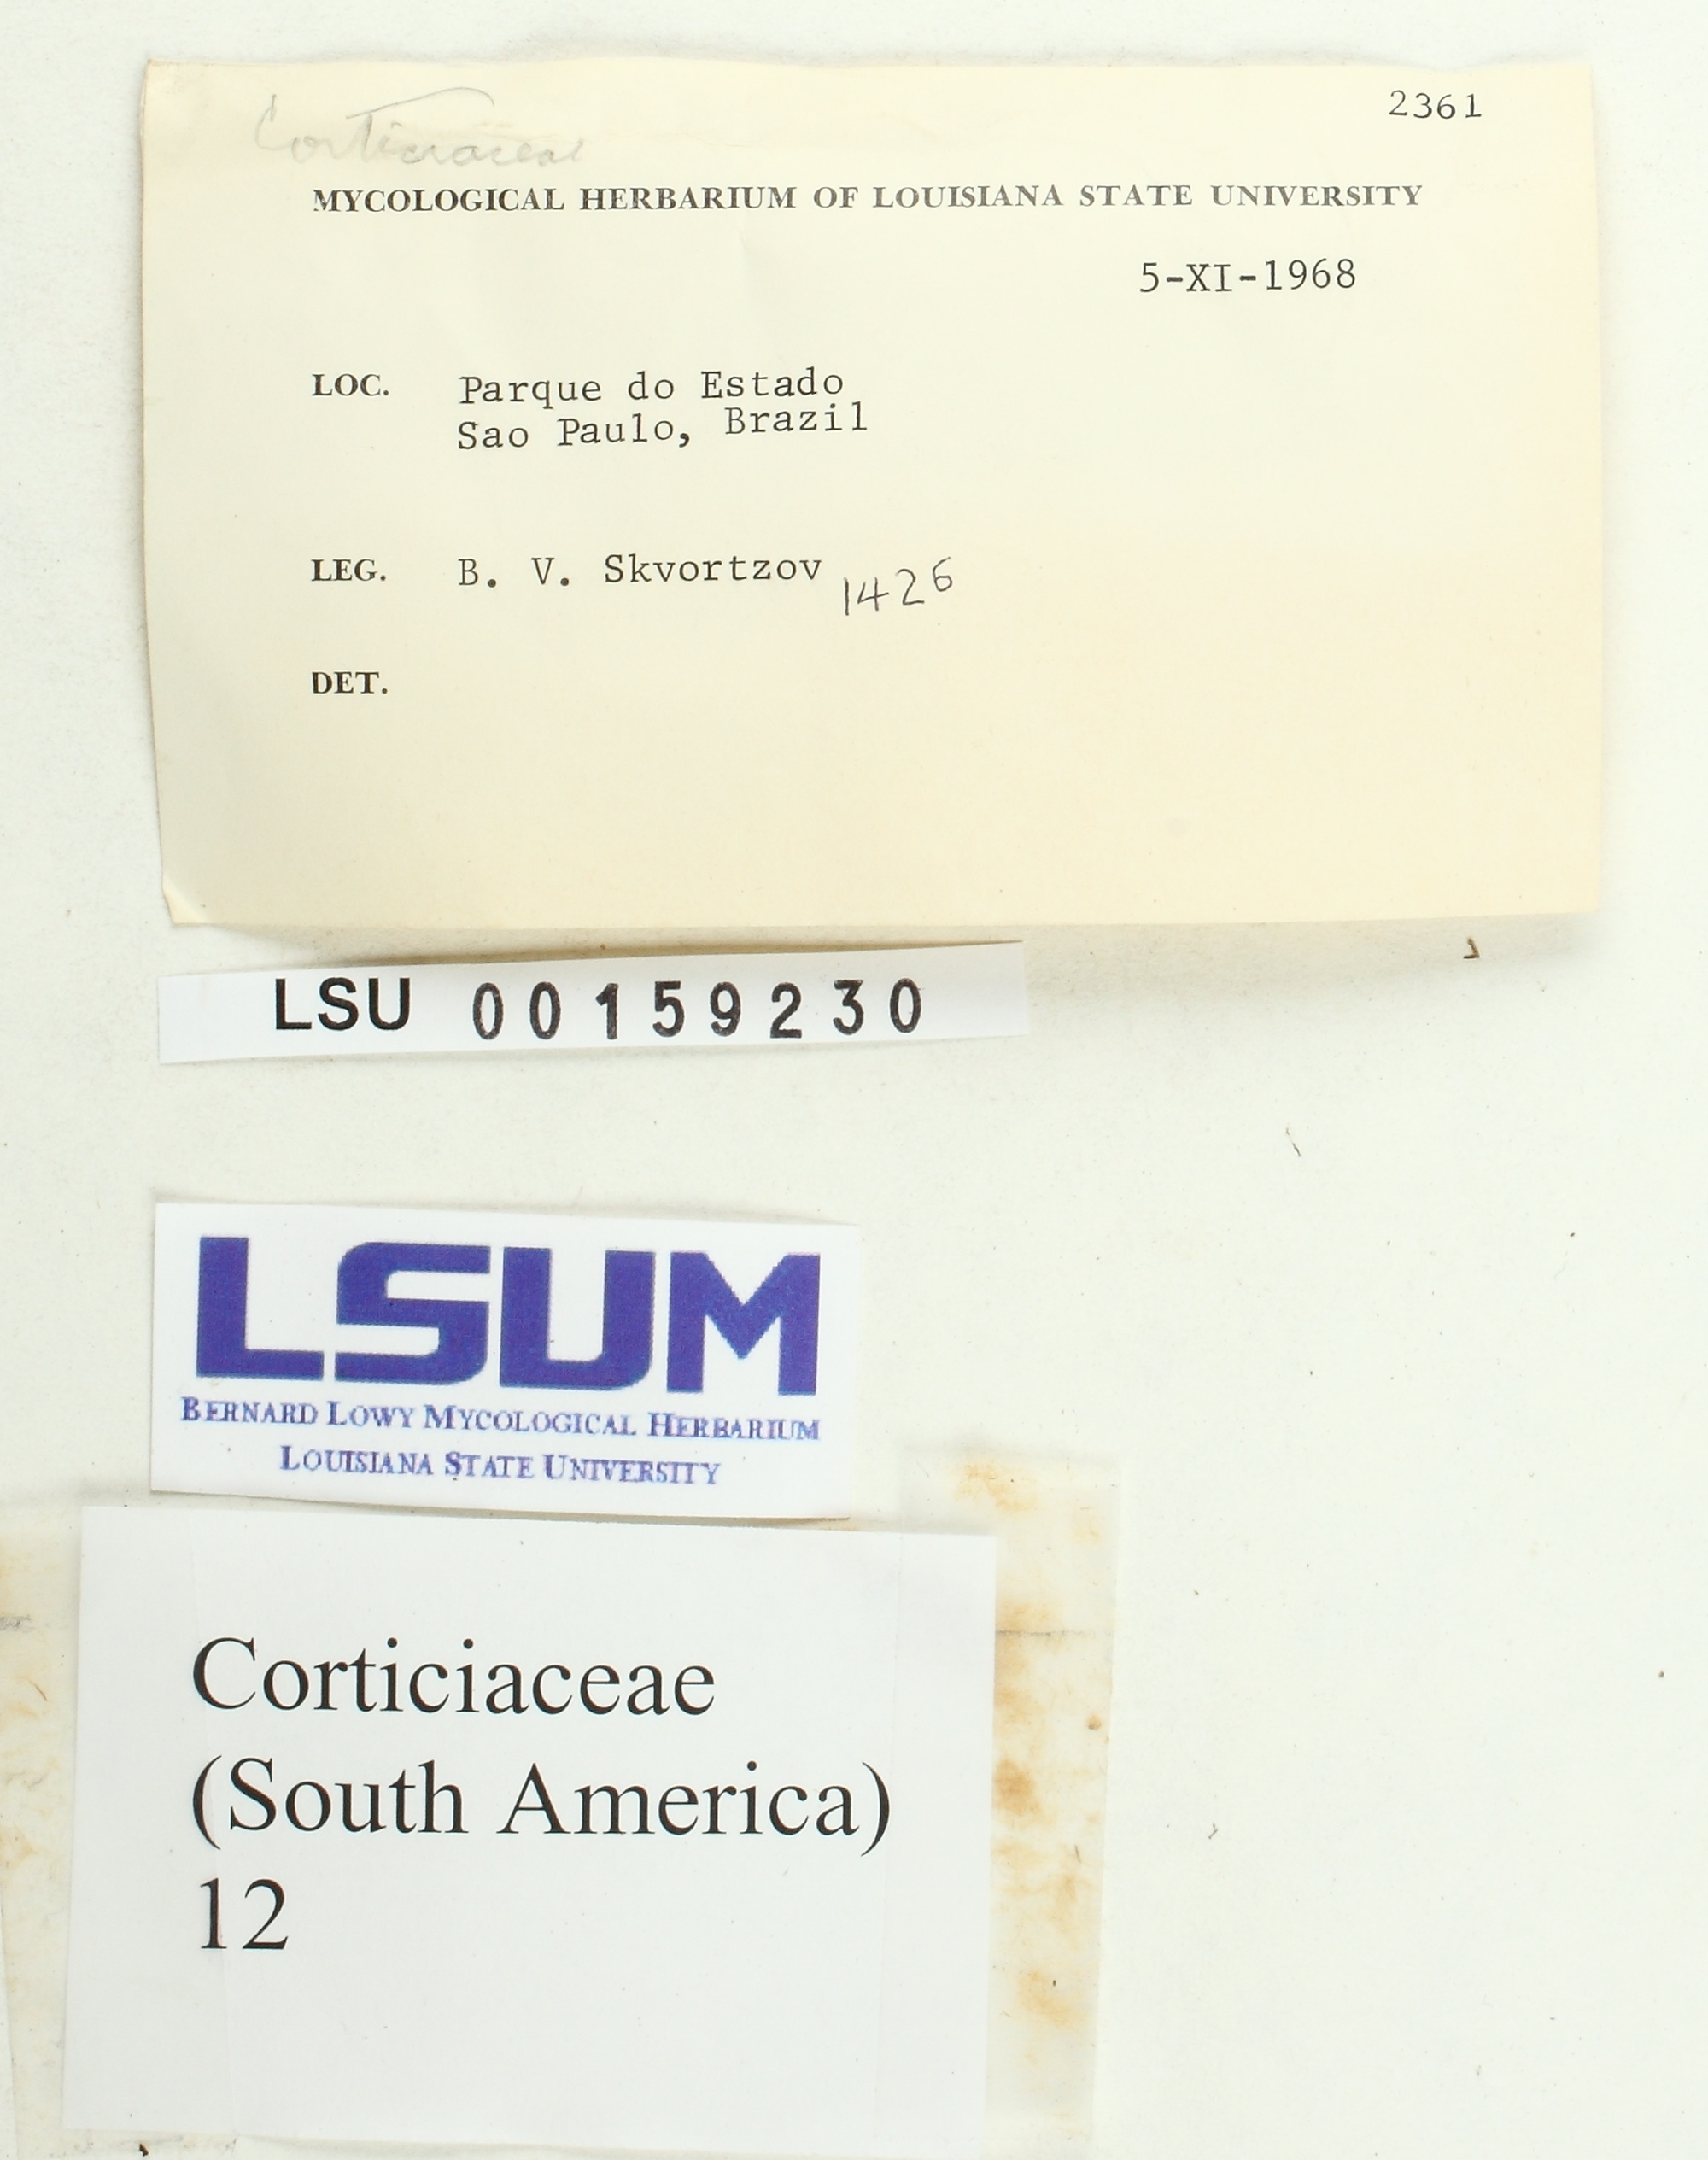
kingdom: Fungi
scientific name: Fungi
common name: Fungi
